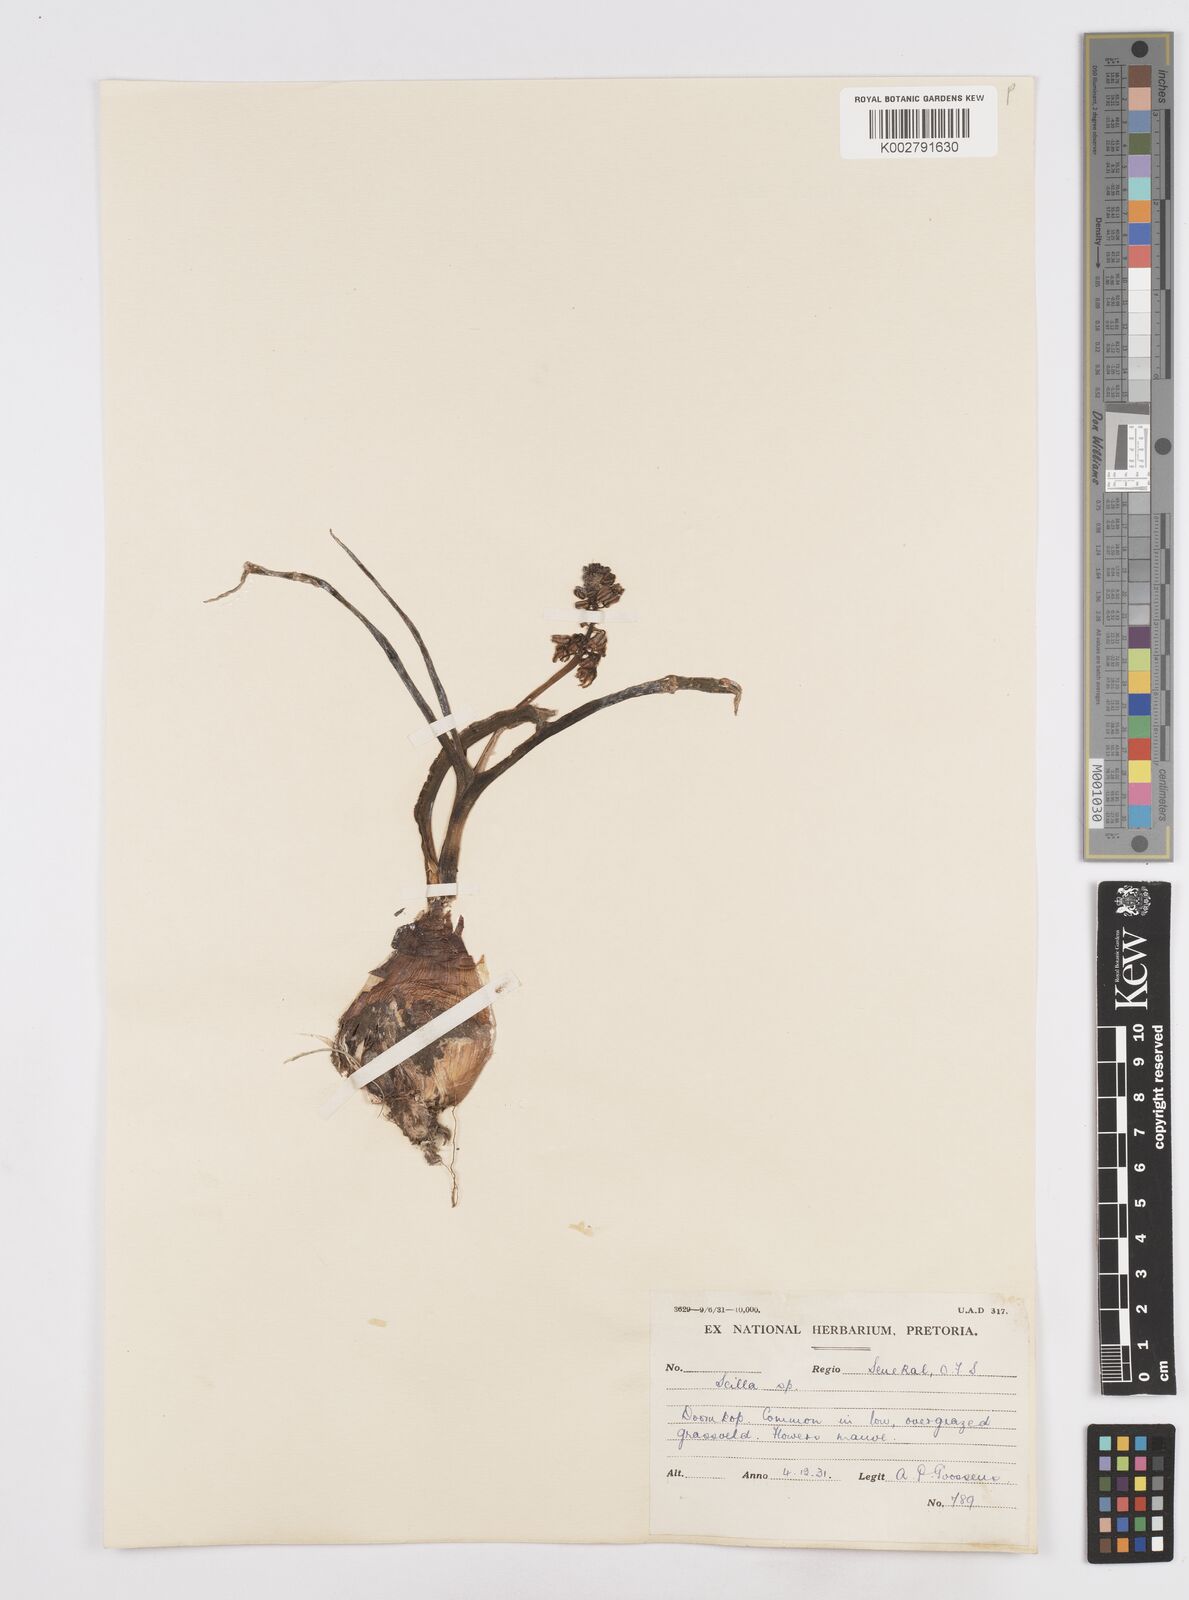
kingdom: Plantae
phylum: Tracheophyta
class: Liliopsida
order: Asparagales
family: Asparagaceae
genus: Scilla
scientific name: Scilla
